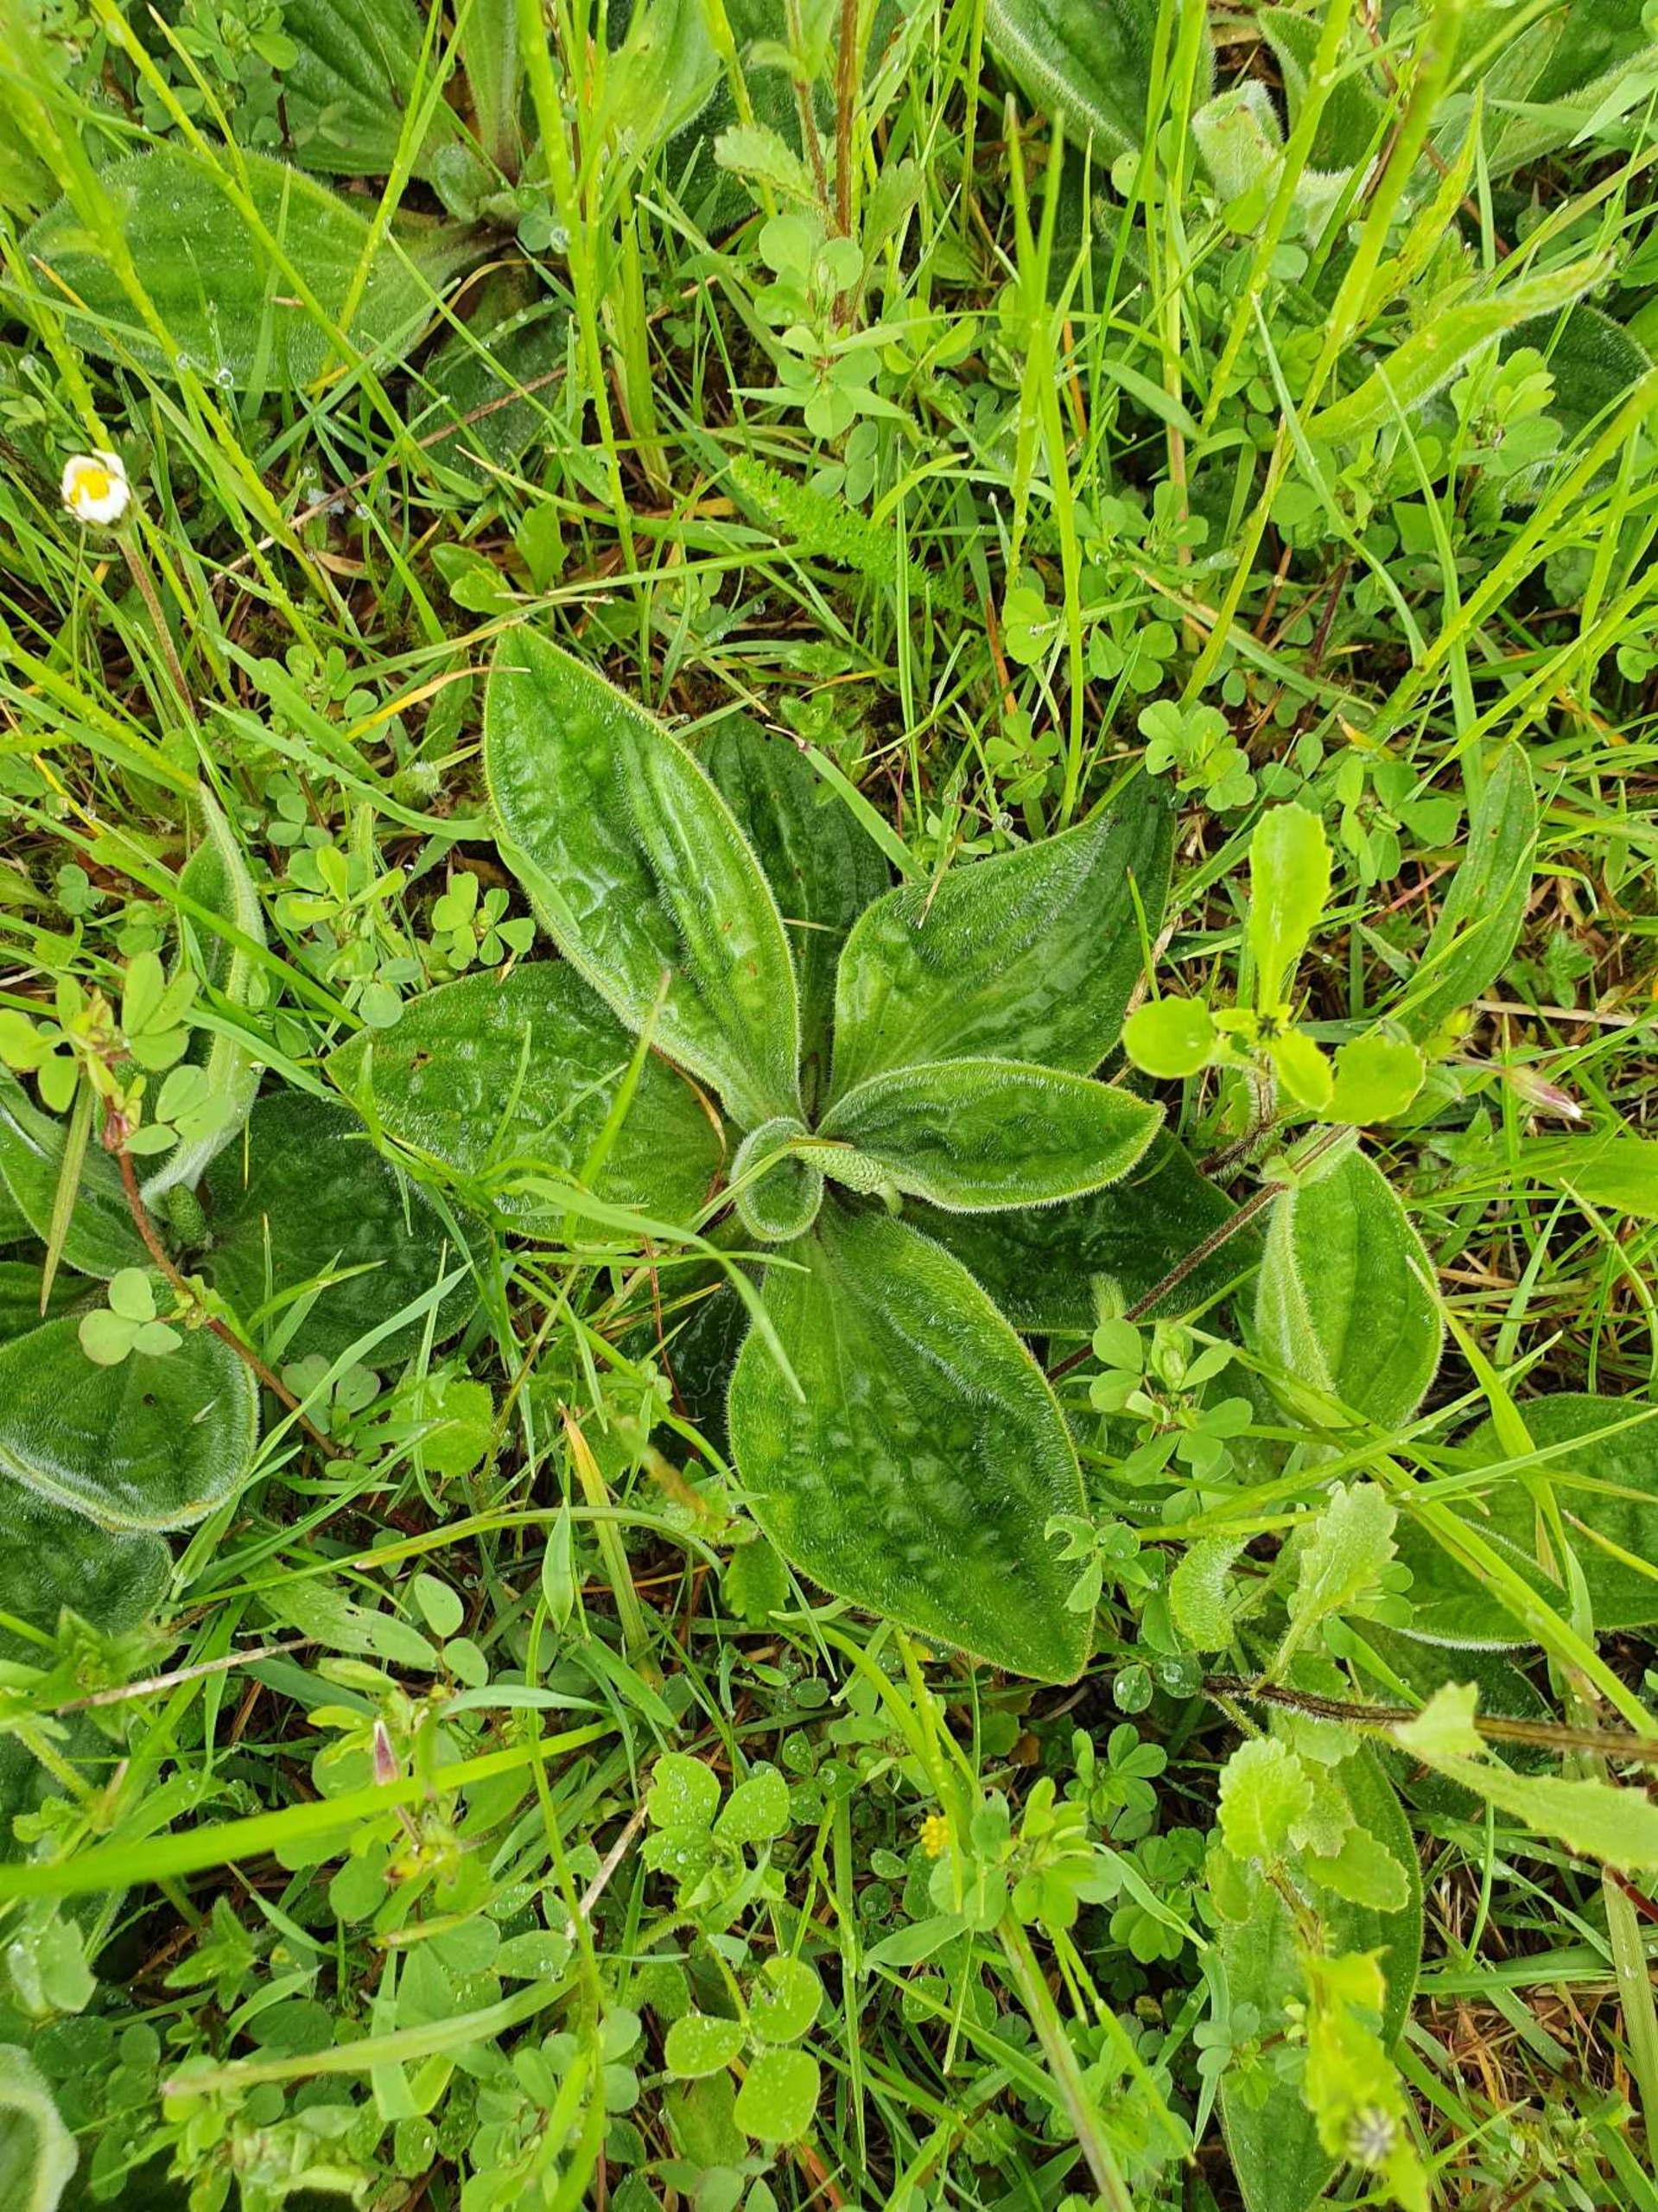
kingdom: Plantae
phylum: Tracheophyta
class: Magnoliopsida
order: Lamiales
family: Plantaginaceae
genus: Plantago
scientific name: Plantago media
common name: Dunet vejbred
